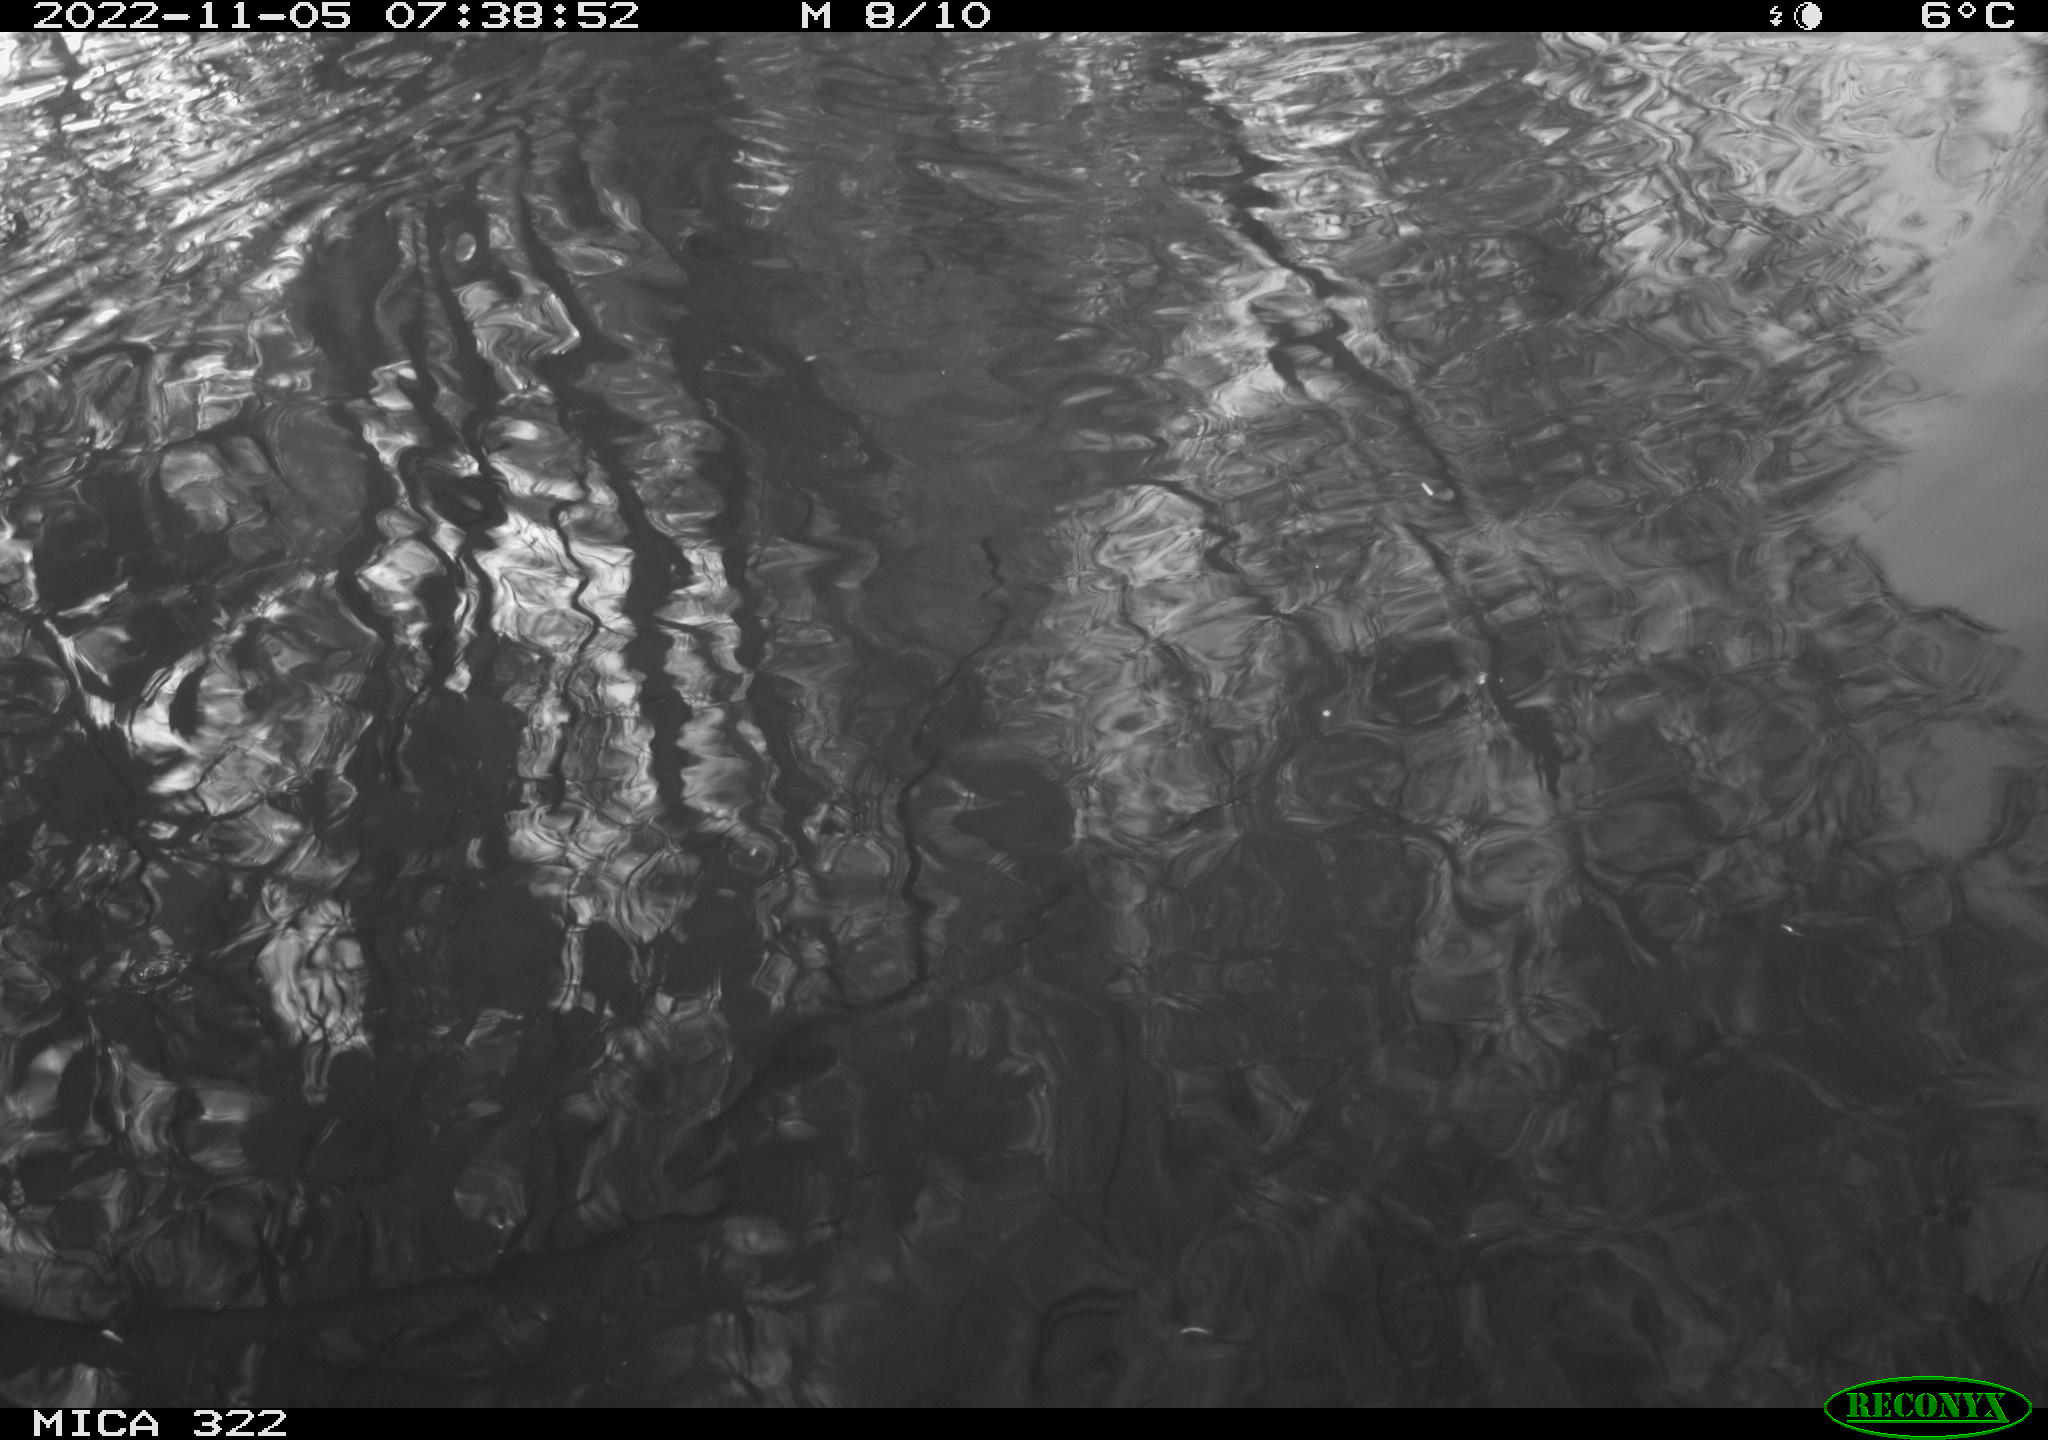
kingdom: Animalia
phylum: Chordata
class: Aves
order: Anseriformes
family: Anatidae
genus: Anas
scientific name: Anas
